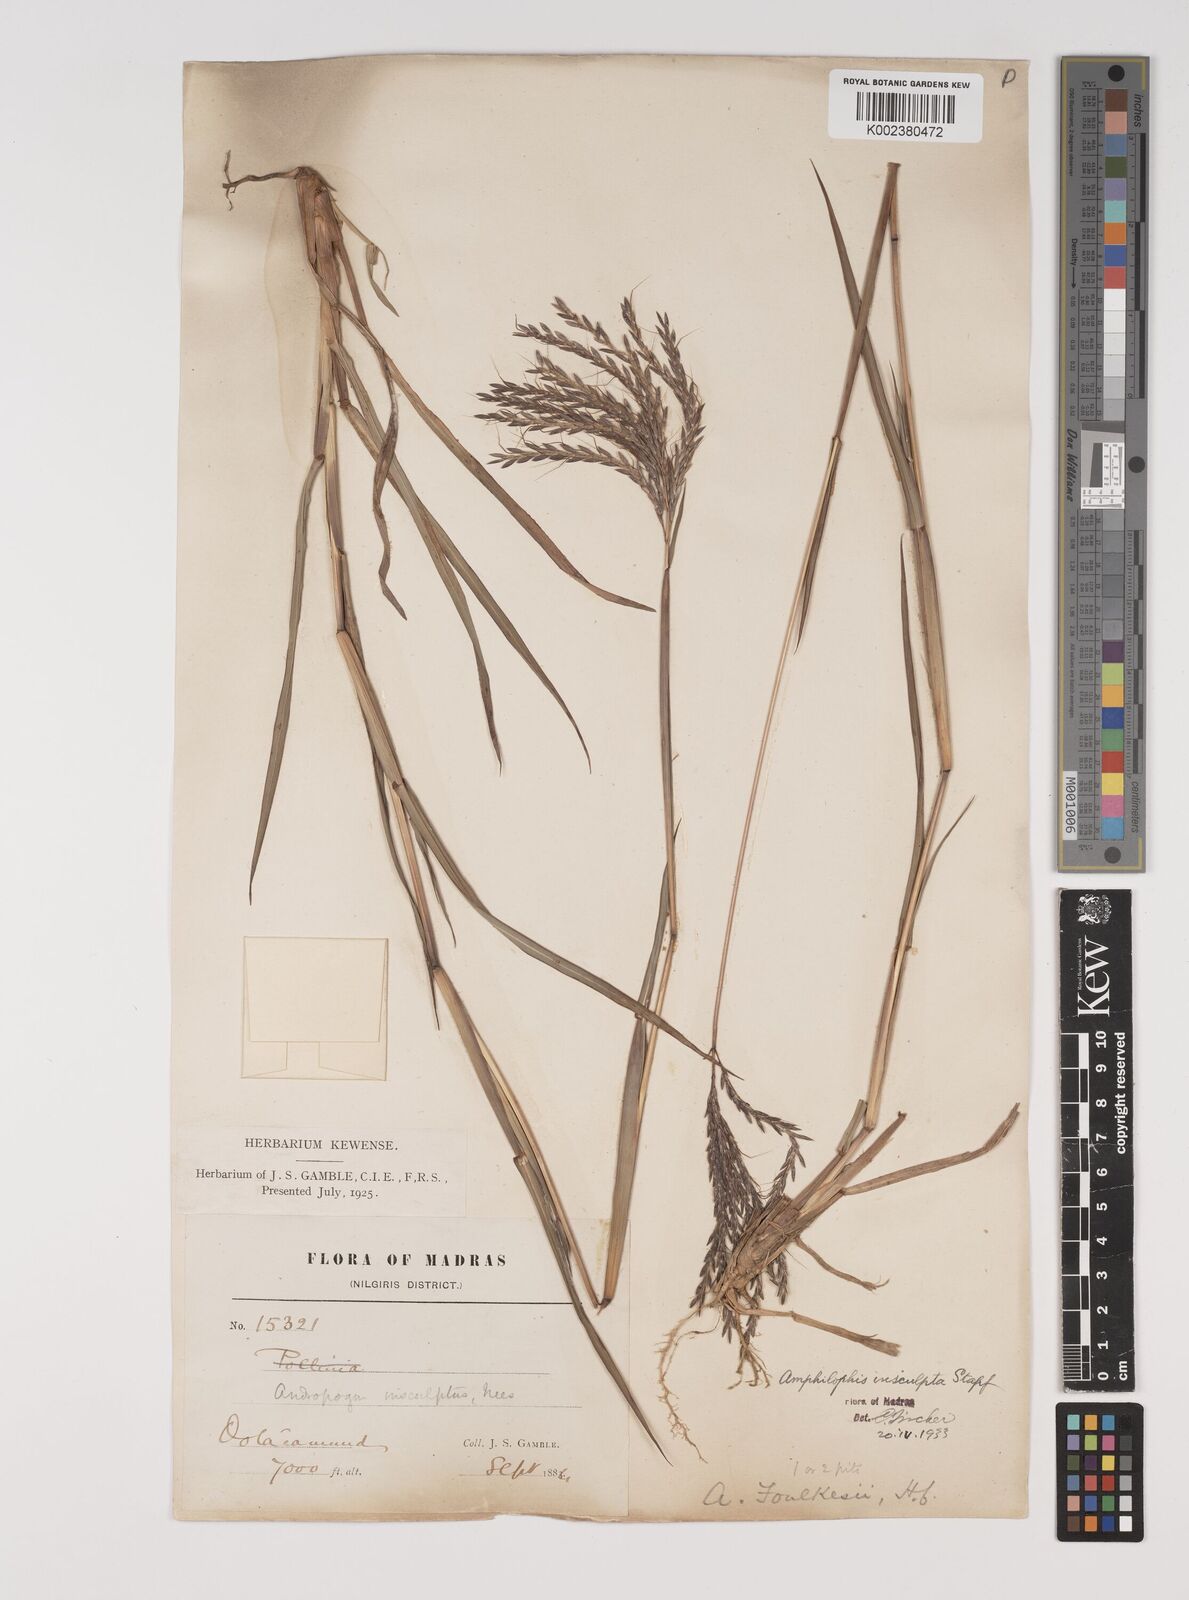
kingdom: Plantae
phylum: Tracheophyta
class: Liliopsida
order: Poales
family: Poaceae
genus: Bothriochloa
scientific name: Bothriochloa insculpta
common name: Creeping-bluegrass
